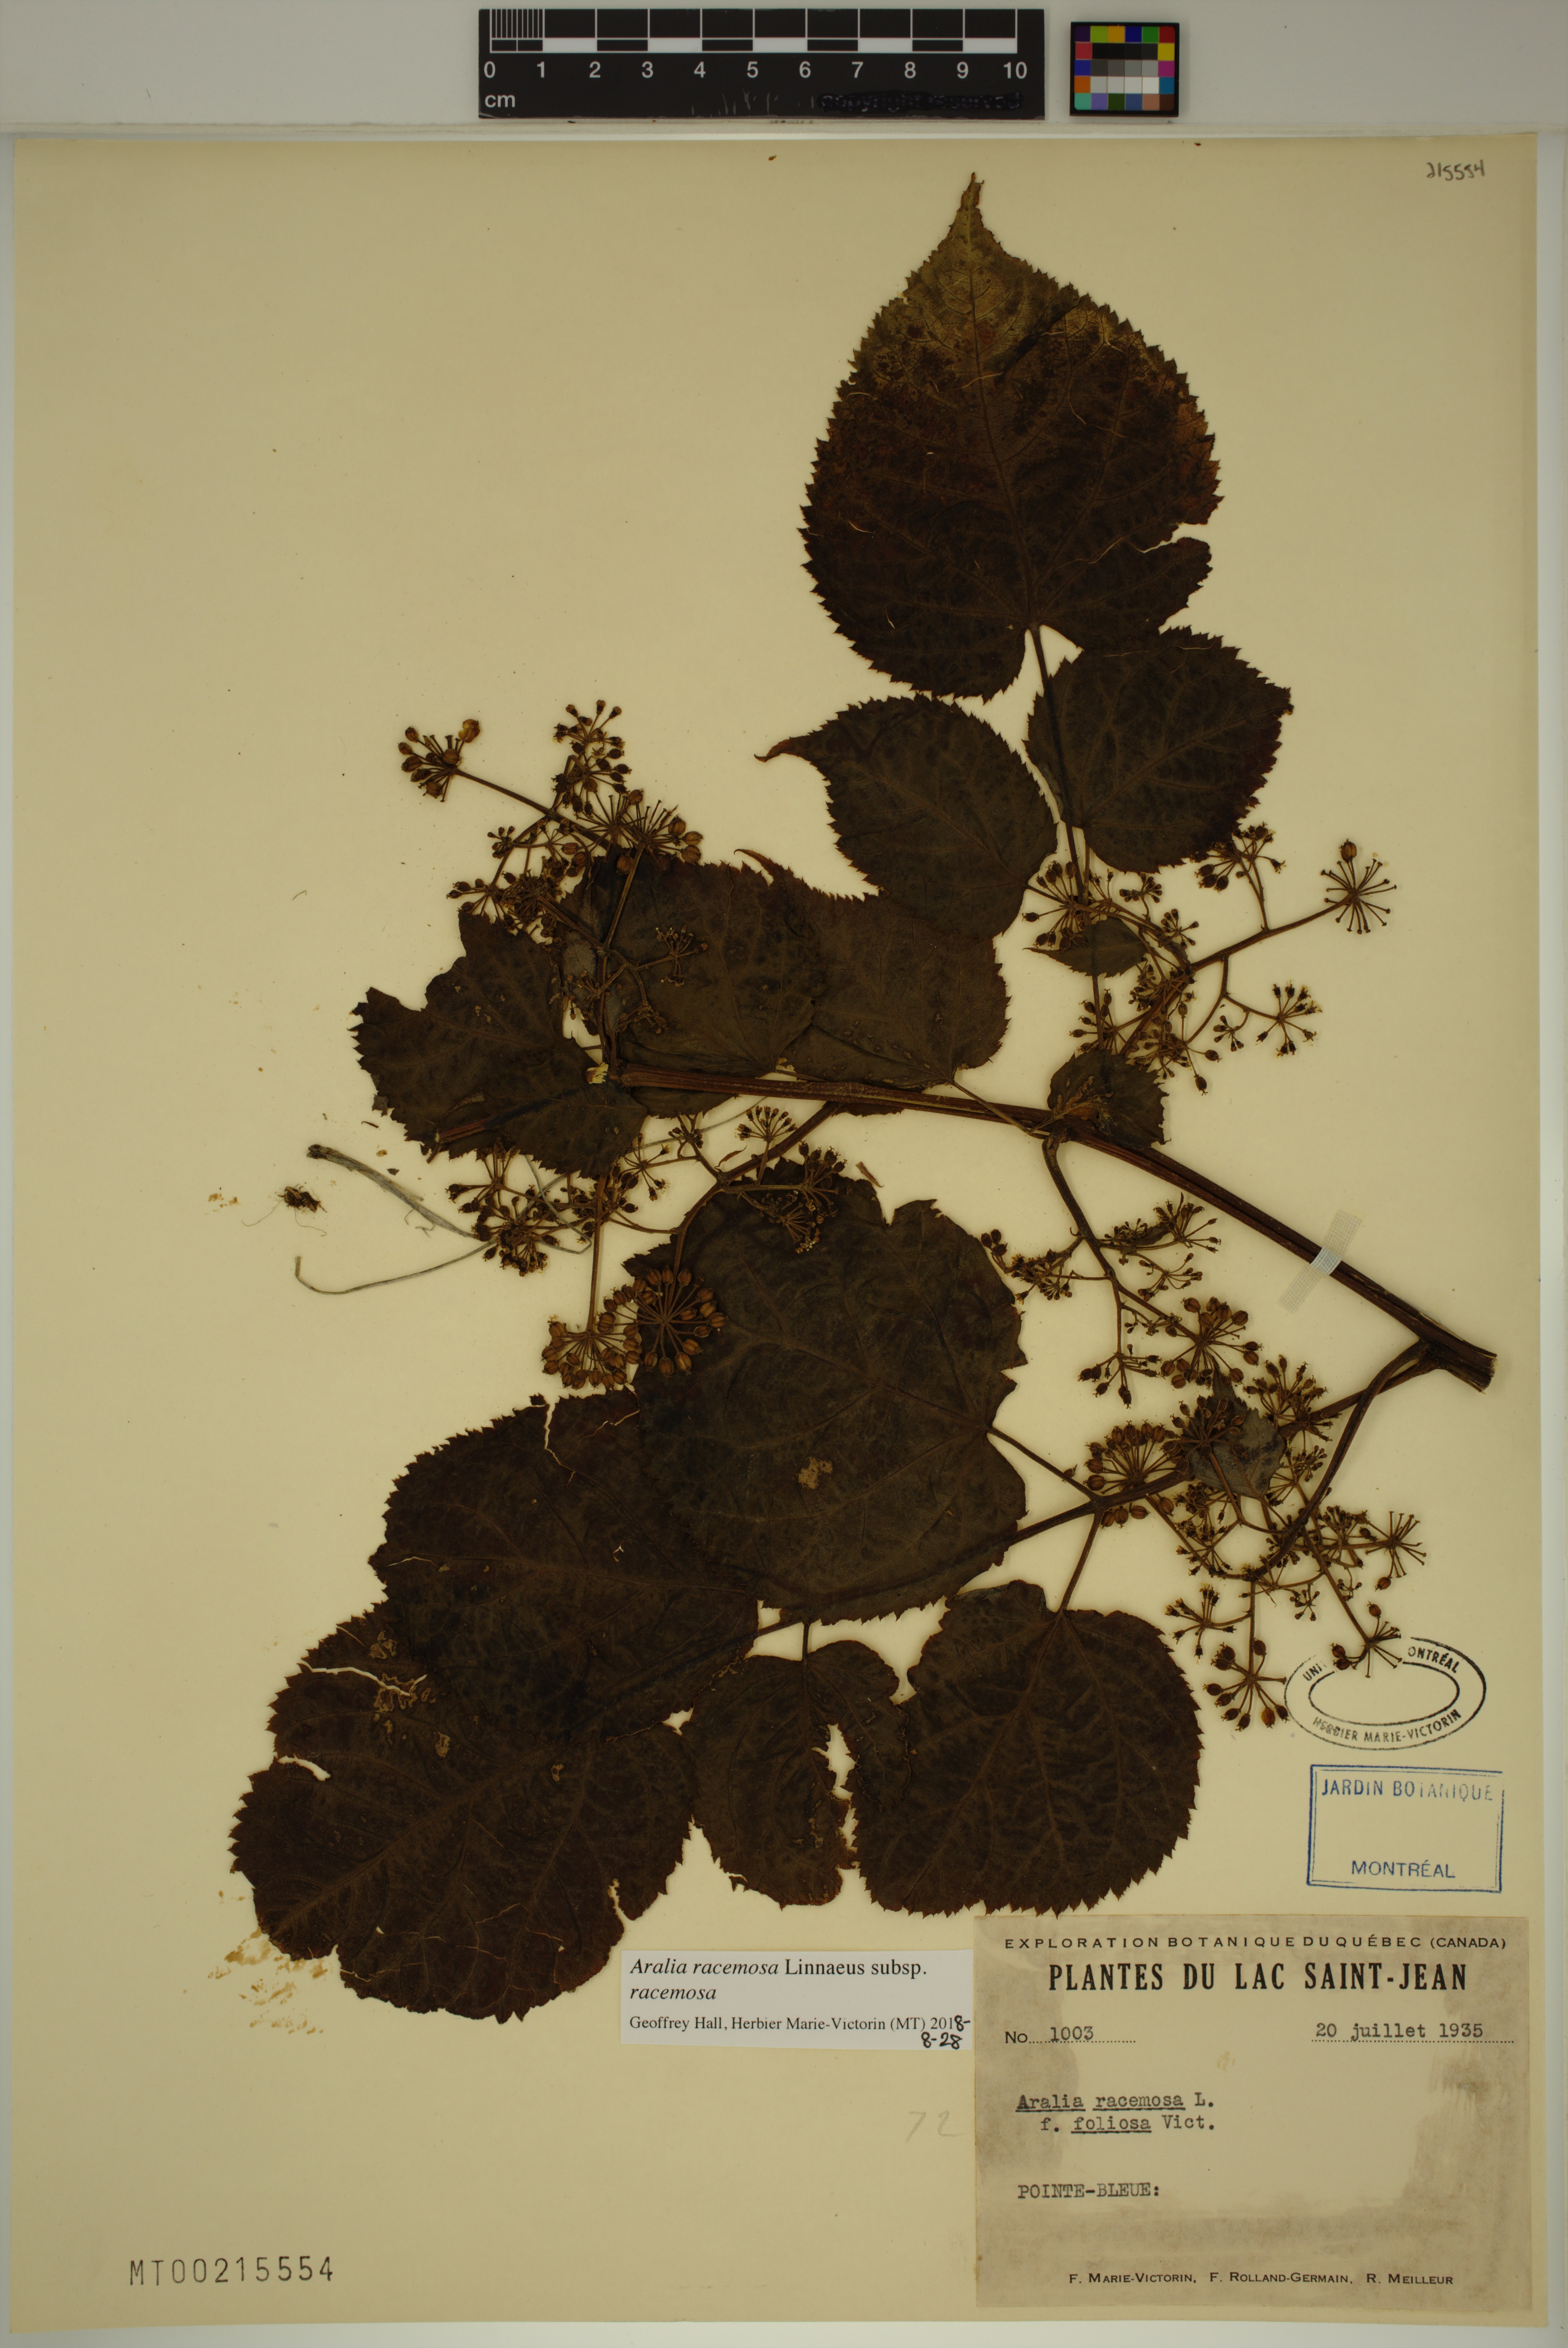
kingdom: Plantae
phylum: Tracheophyta
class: Magnoliopsida
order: Apiales
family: Araliaceae
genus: Aralia
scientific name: Aralia racemosa
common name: American-spikenard
